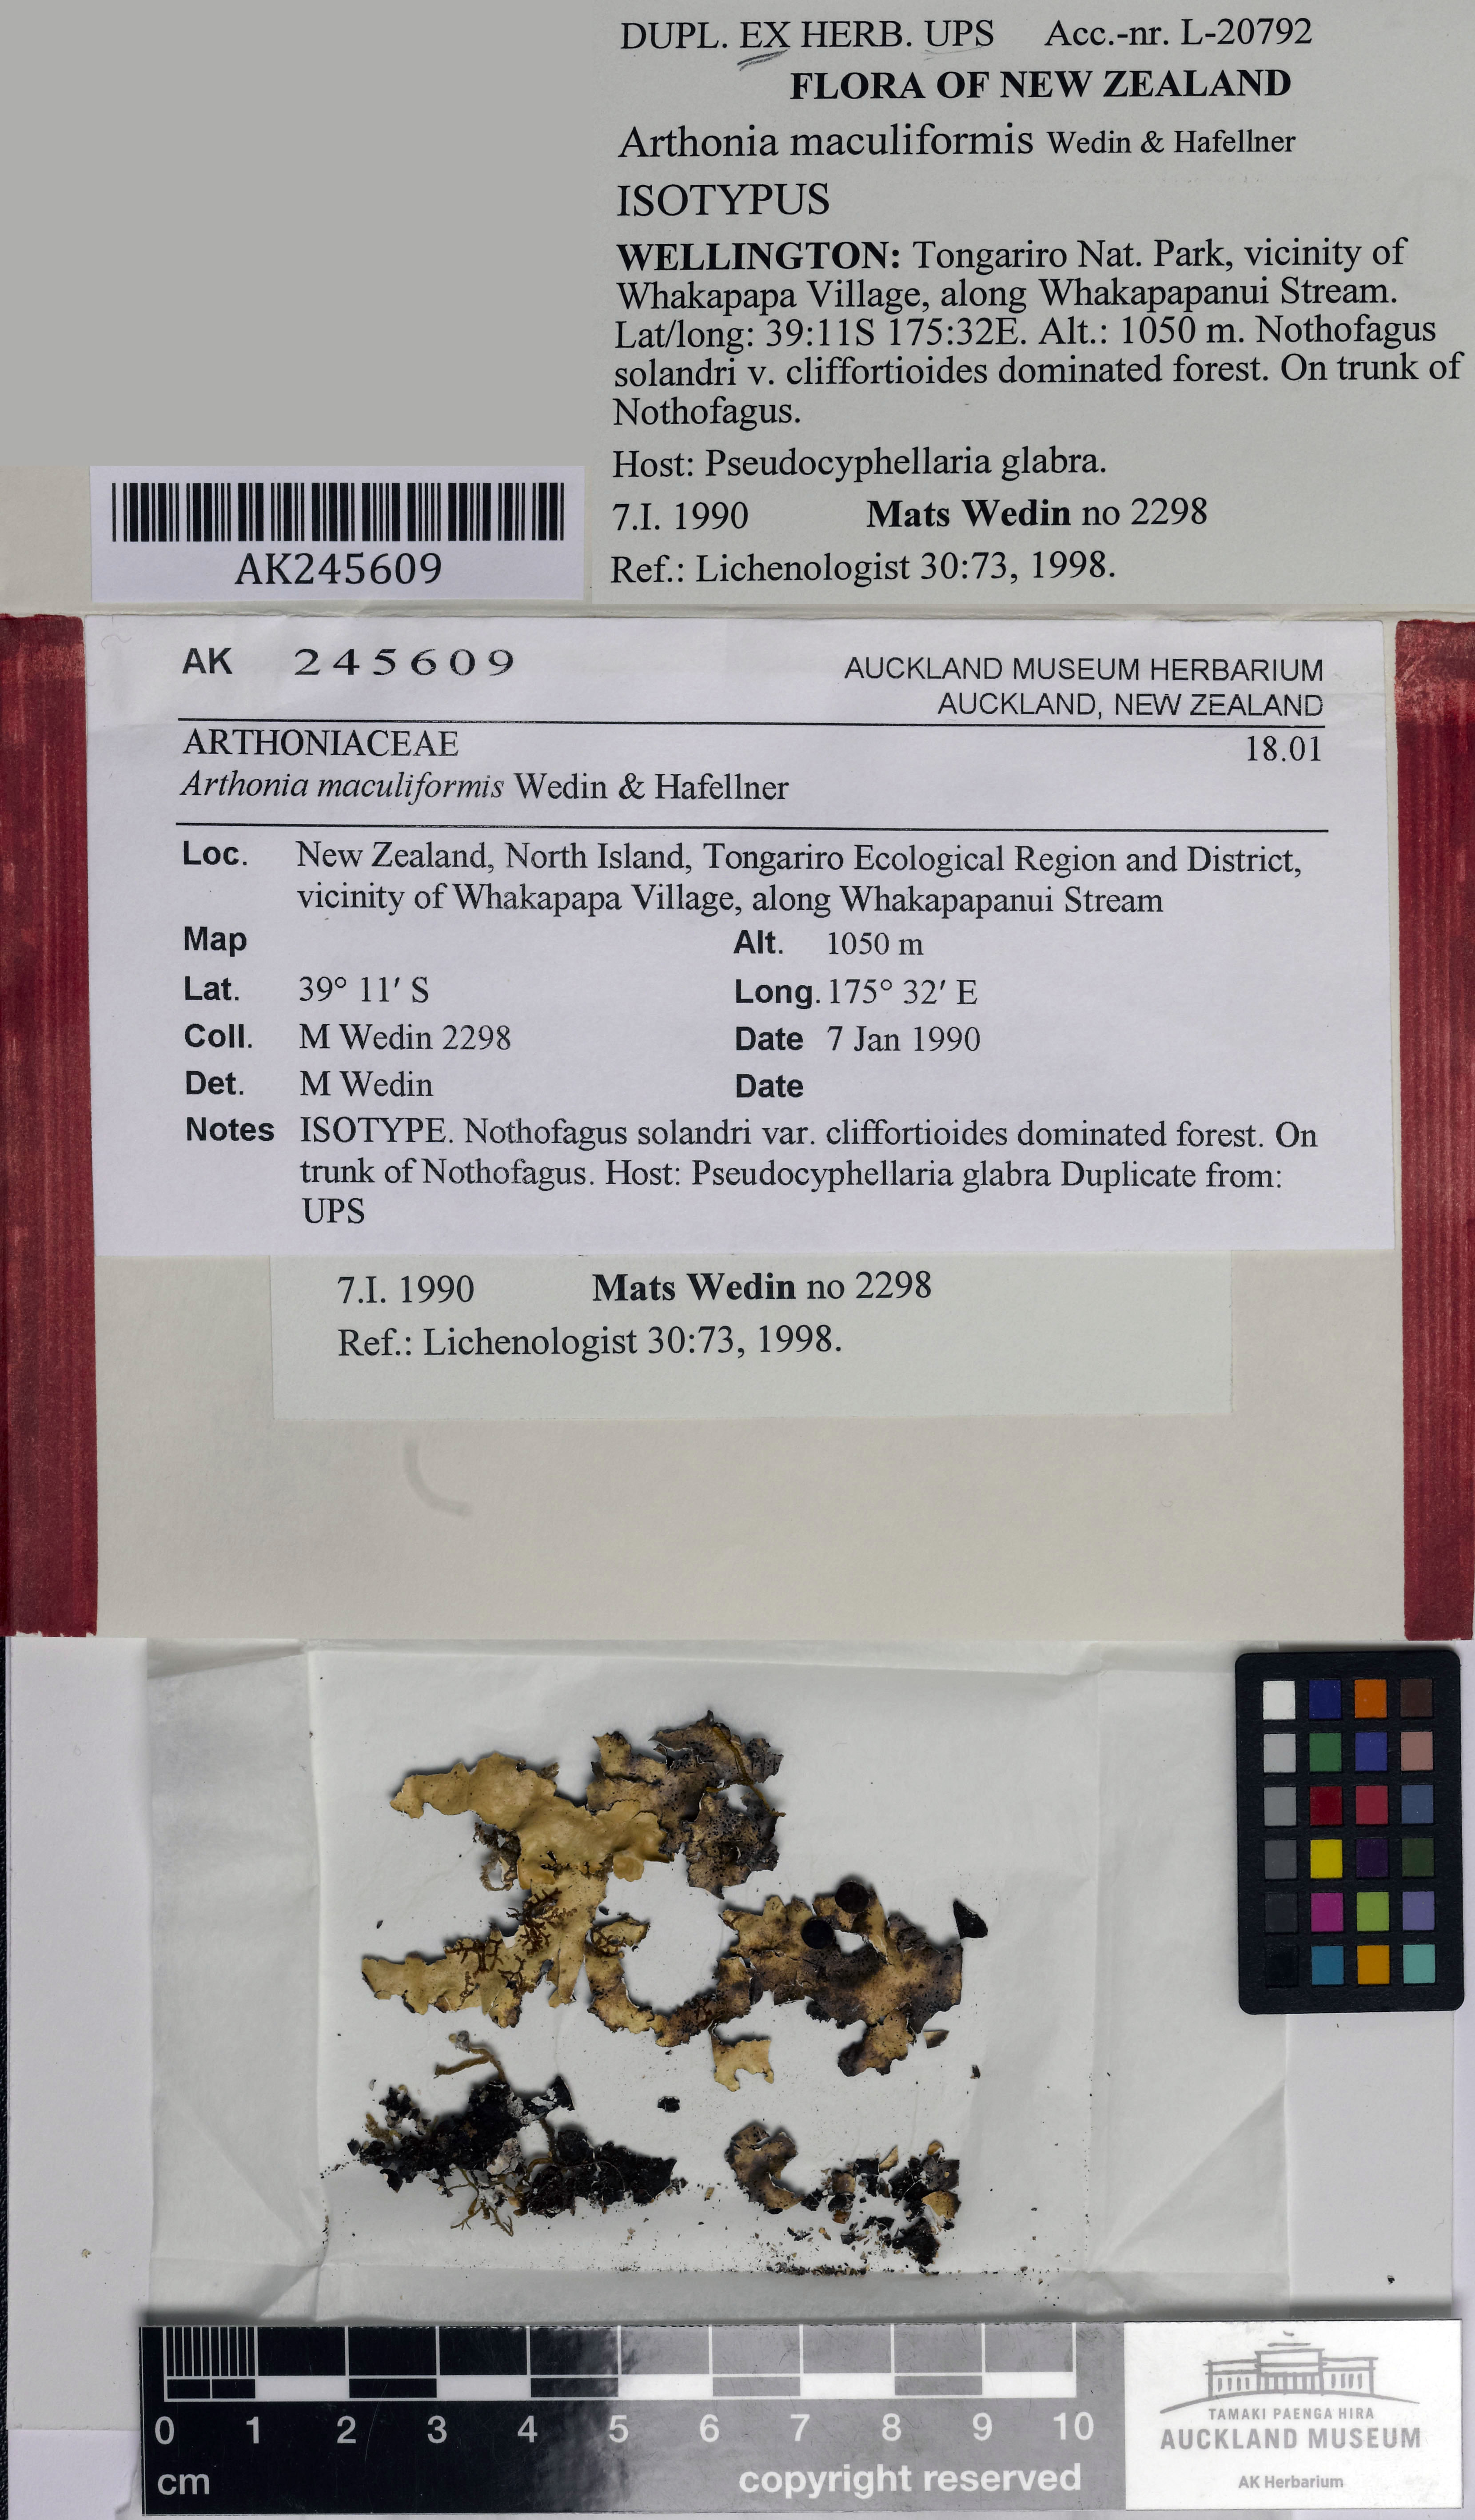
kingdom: Fungi
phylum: Ascomycota
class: Arthoniomycetes
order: Arthoniales
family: Arthoniaceae
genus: Arthonia
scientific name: Arthonia maculiformis
